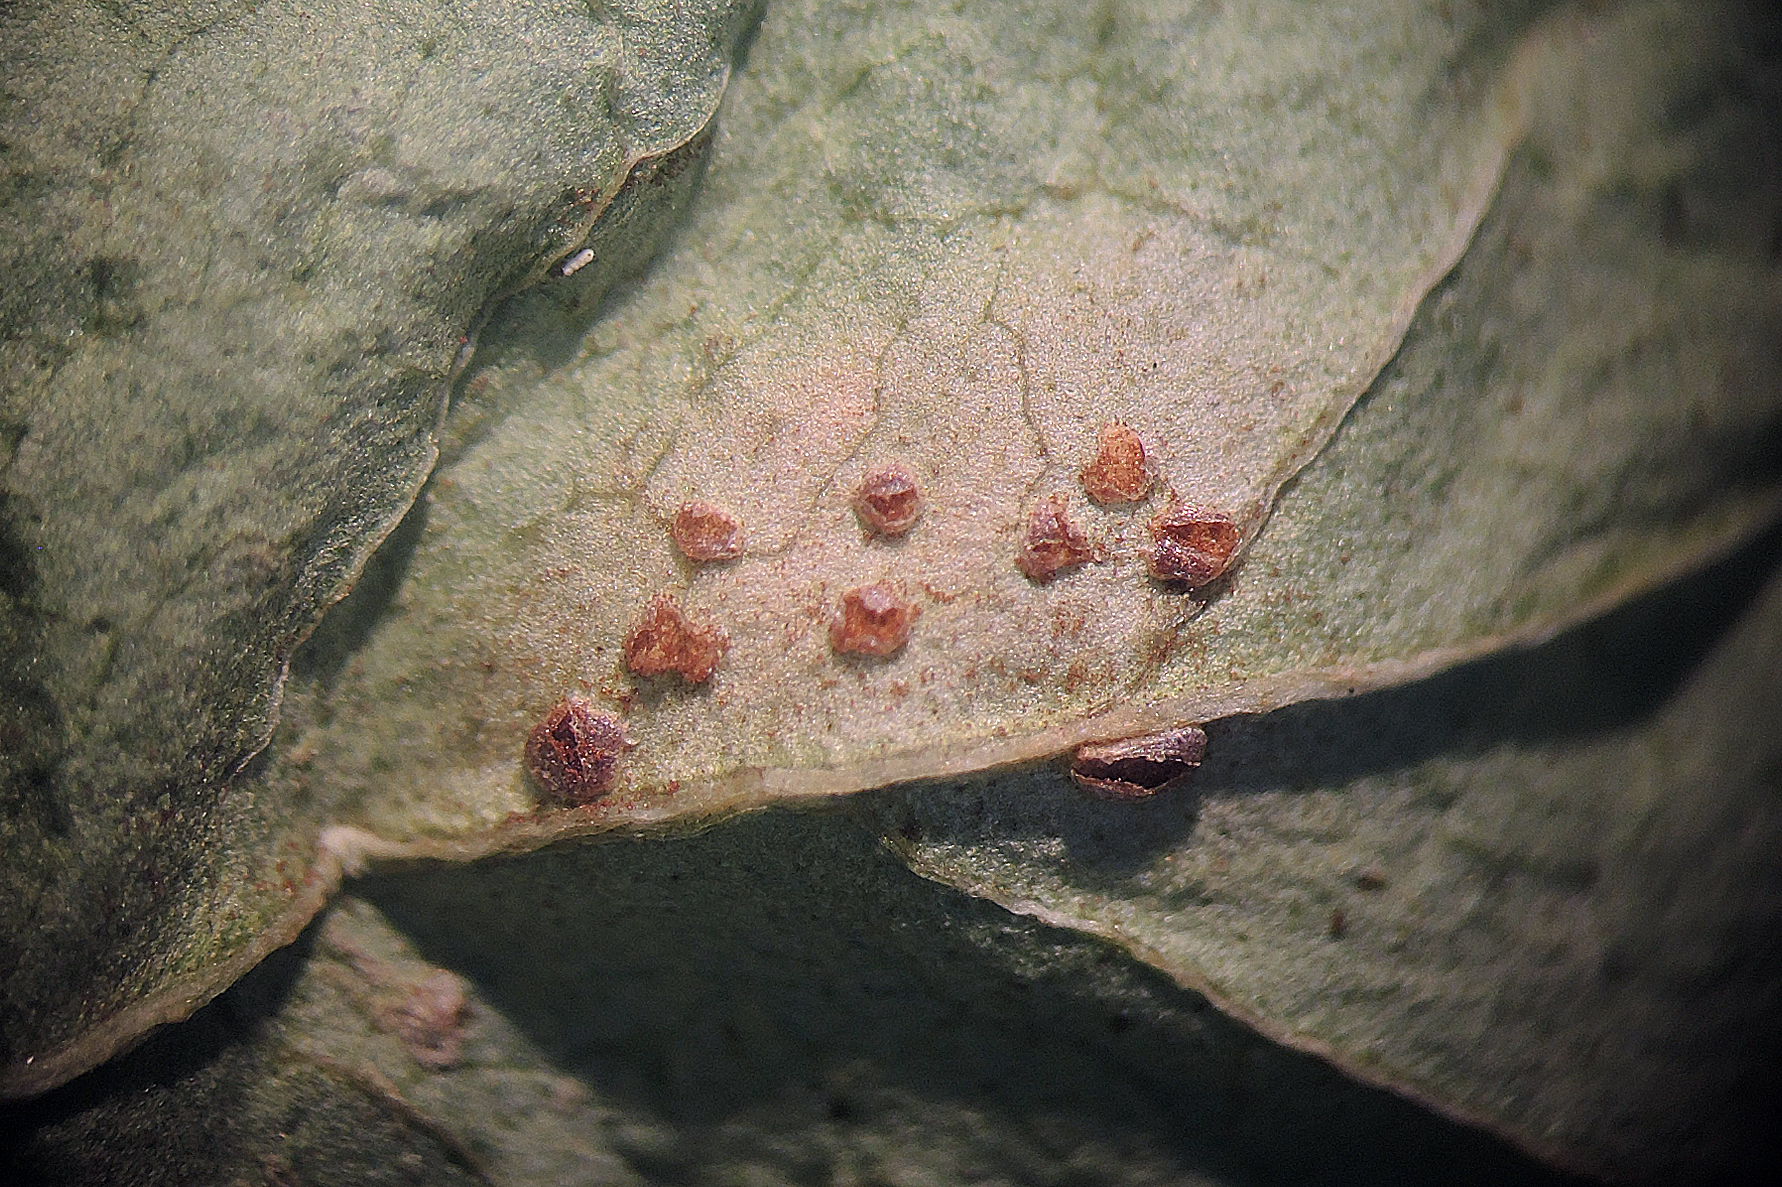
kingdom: Fungi
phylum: Basidiomycota
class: Pucciniomycetes
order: Pucciniales
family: Pucciniaceae
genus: Puccinia
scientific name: Puccinia convolvuli
